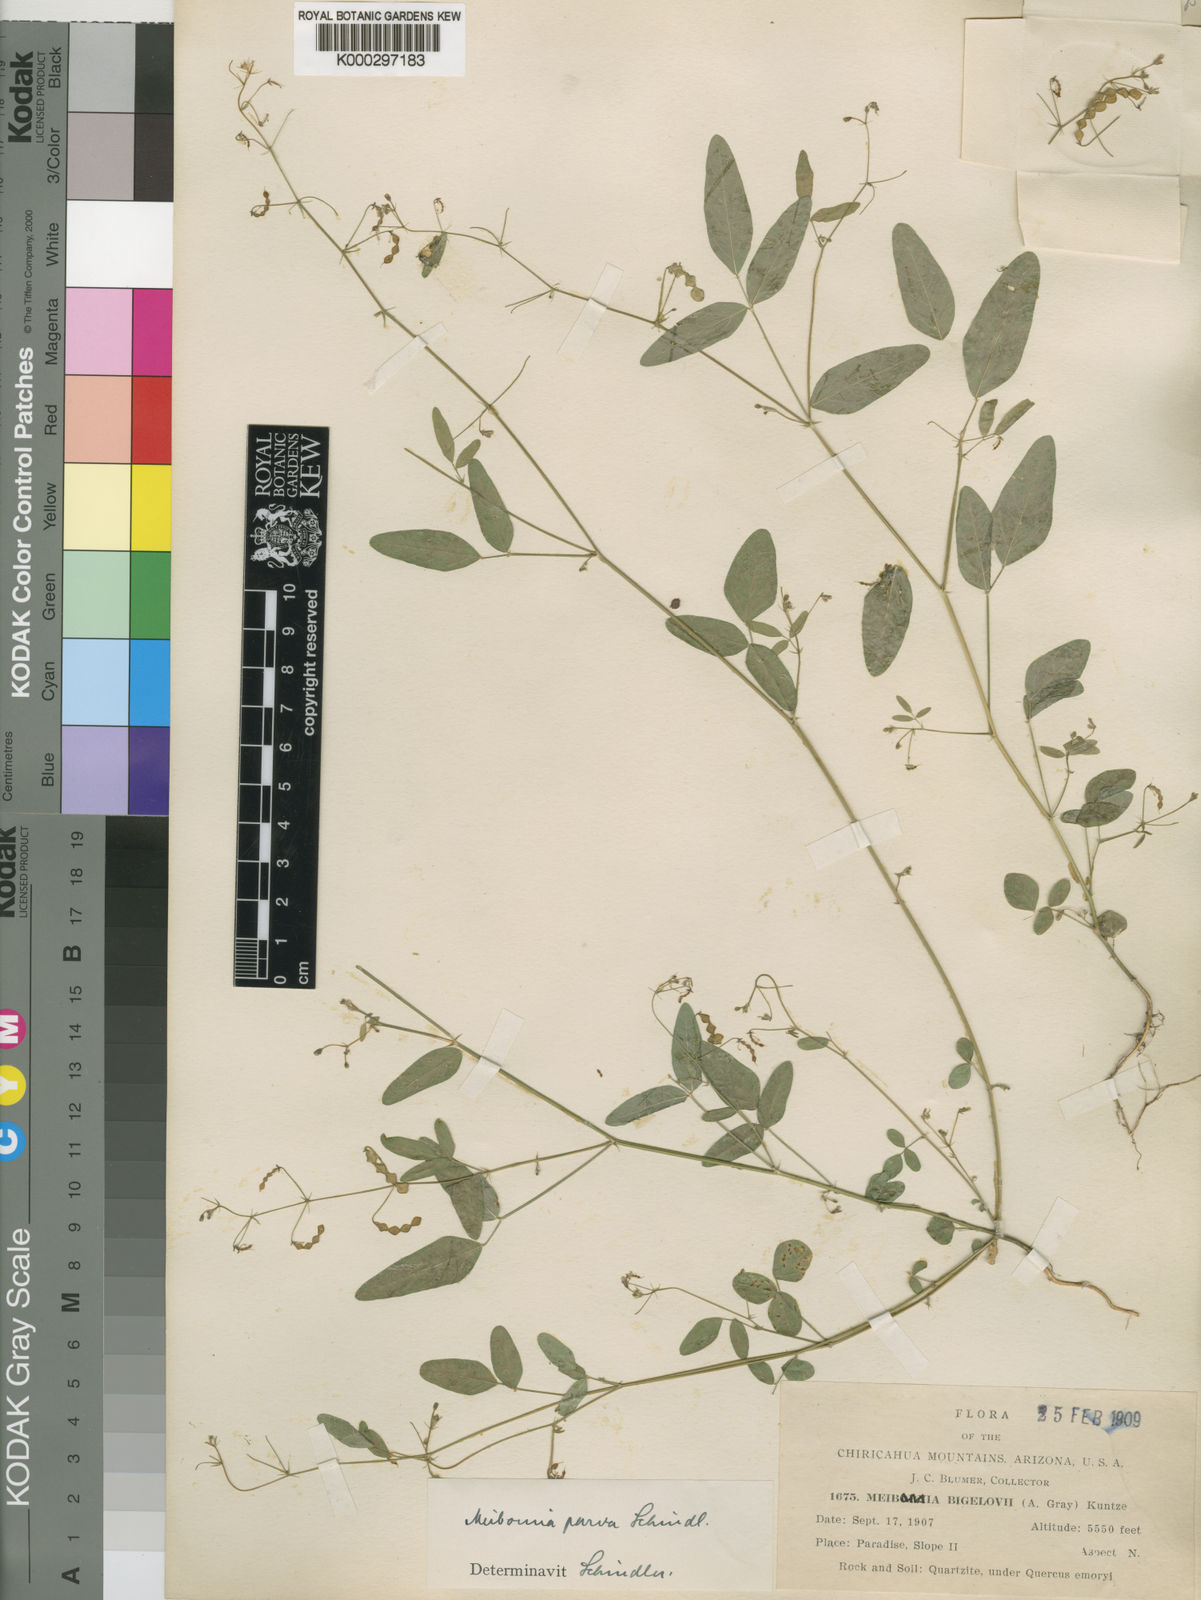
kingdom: Plantae
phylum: Tracheophyta
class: Magnoliopsida
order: Fabales
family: Fabaceae
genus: Desmodium
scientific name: Desmodium procumbens
